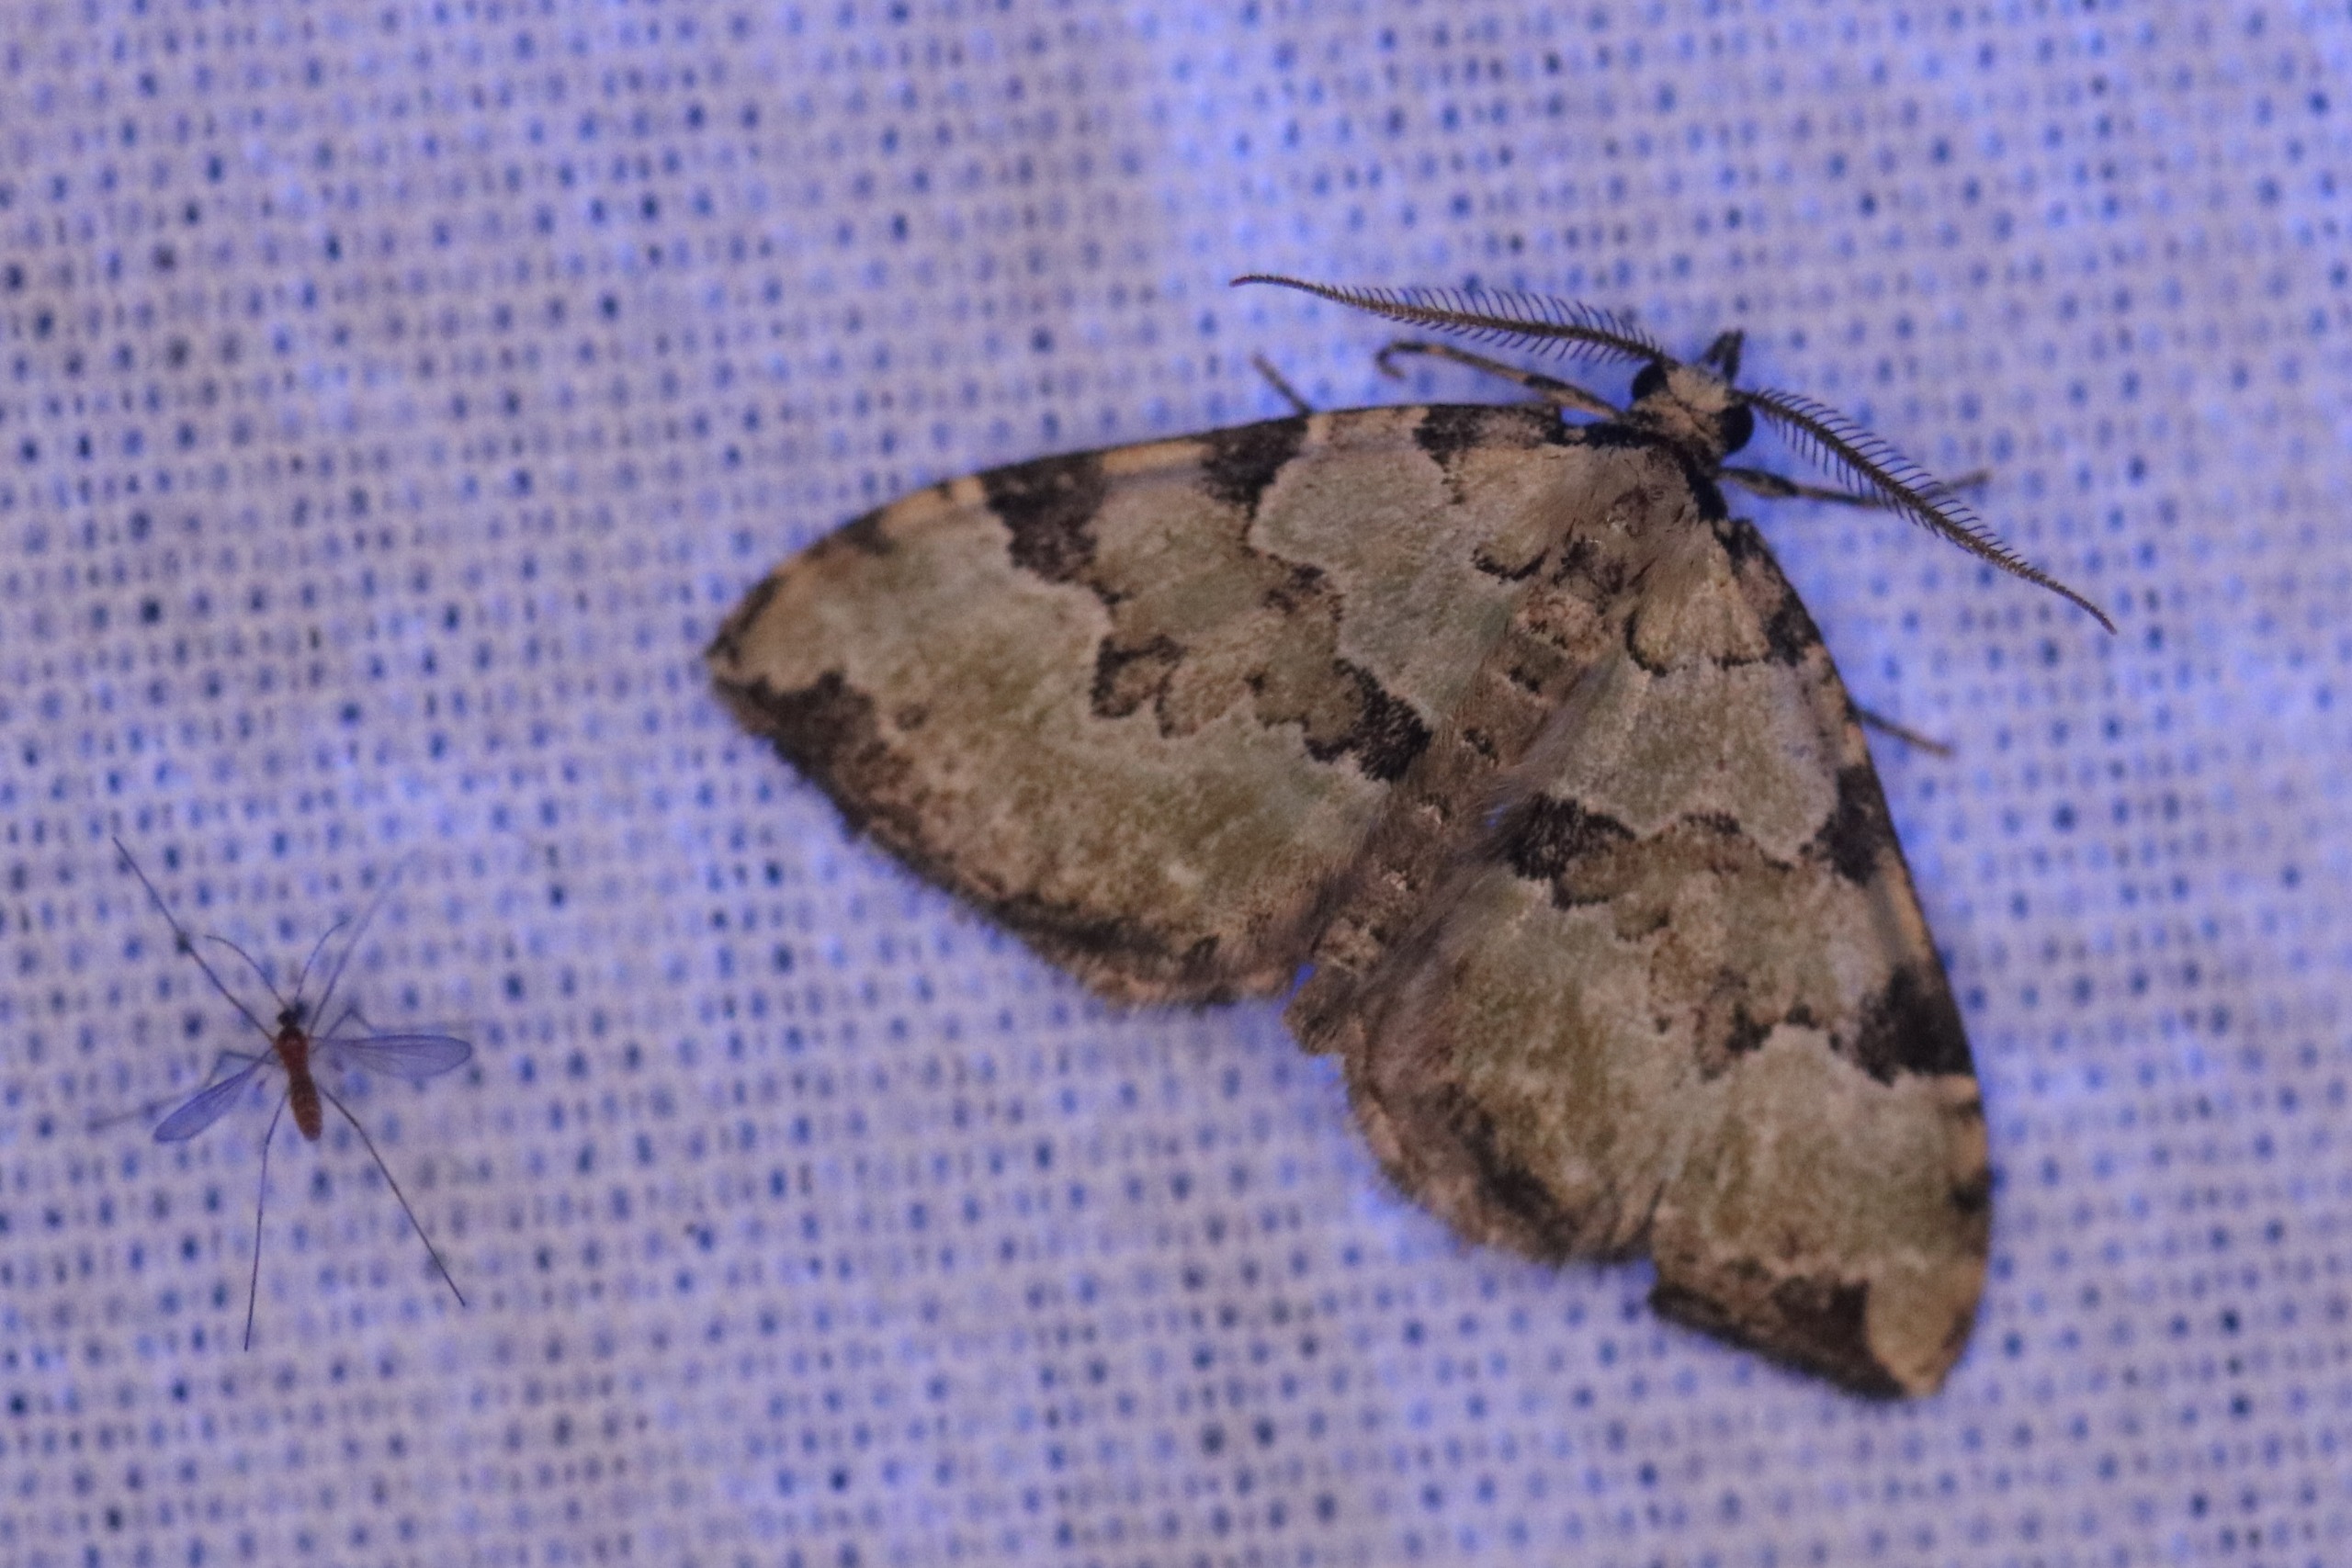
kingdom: Animalia
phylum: Arthropoda
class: Insecta
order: Lepidoptera
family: Geometridae
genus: Colostygia
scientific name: Colostygia pectinataria
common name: Grøn bladmåler
